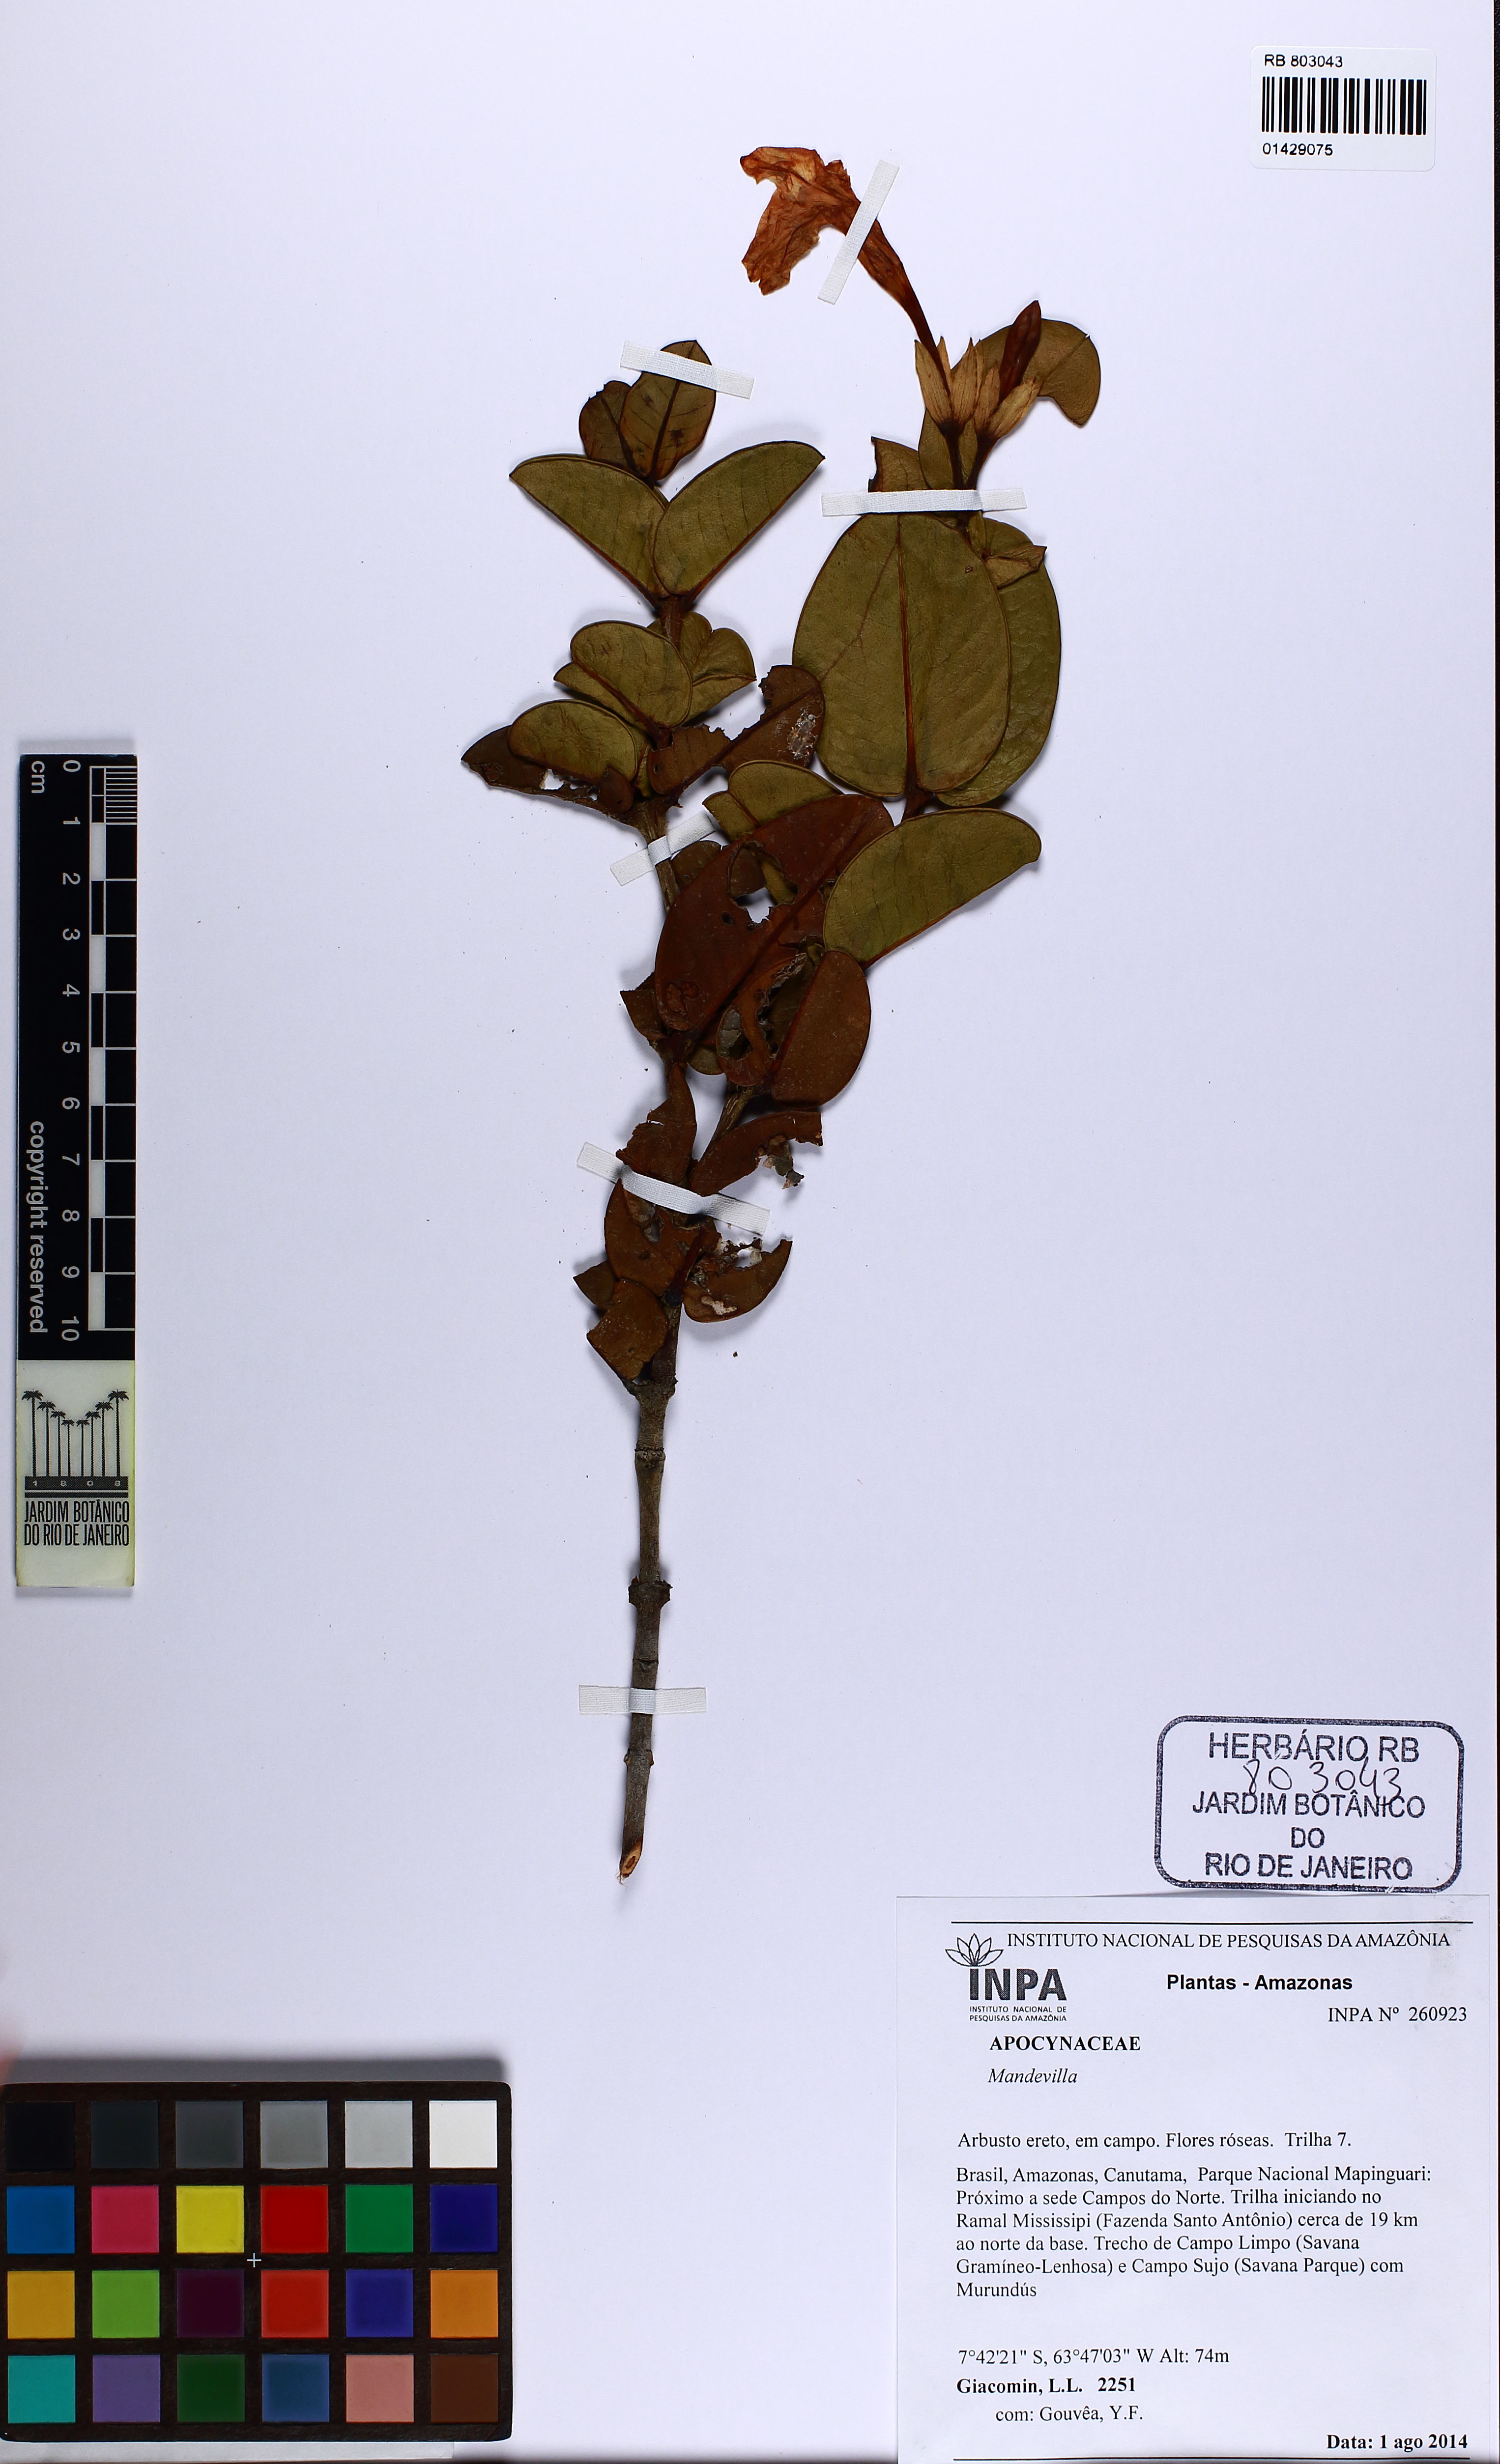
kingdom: Plantae
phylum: Tracheophyta
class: Magnoliopsida
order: Gentianales
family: Apocynaceae
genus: Mandevilla
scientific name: Mandevilla
